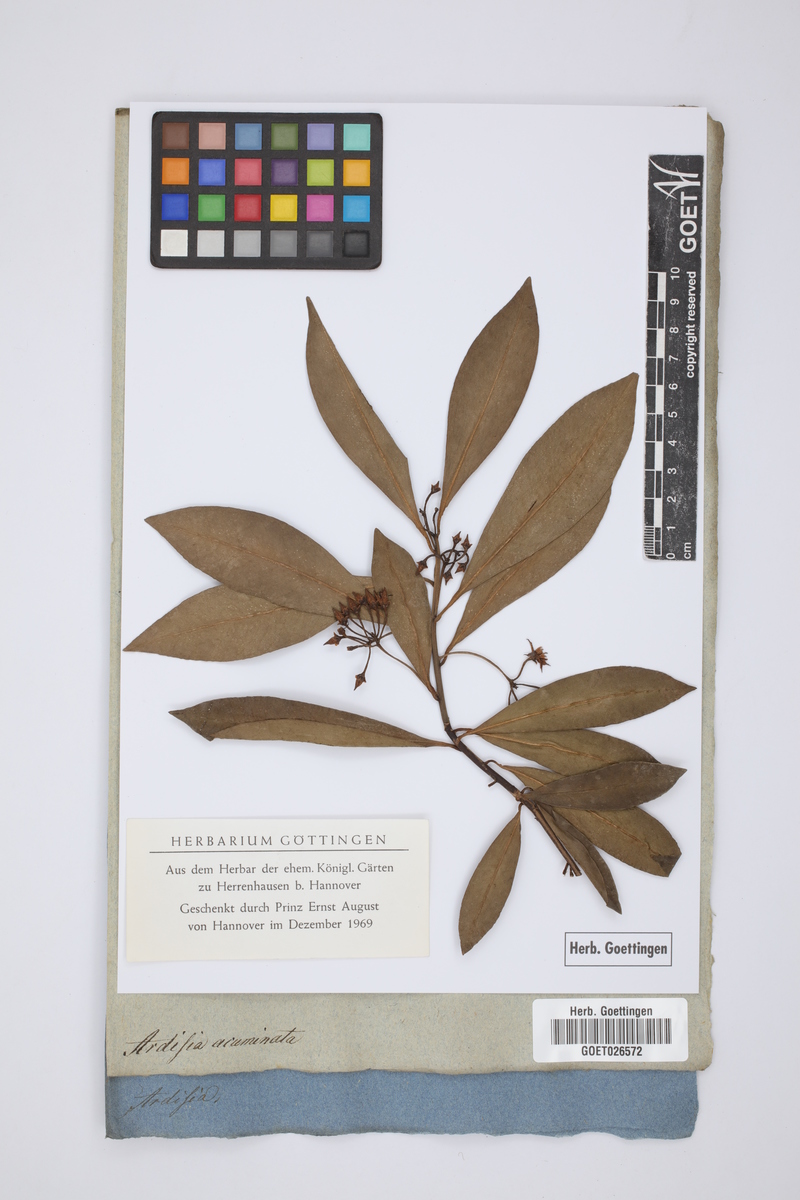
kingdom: Plantae
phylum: Tracheophyta
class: Magnoliopsida
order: Ericales
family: Primulaceae
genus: Ardisia
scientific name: Ardisia guianensis
